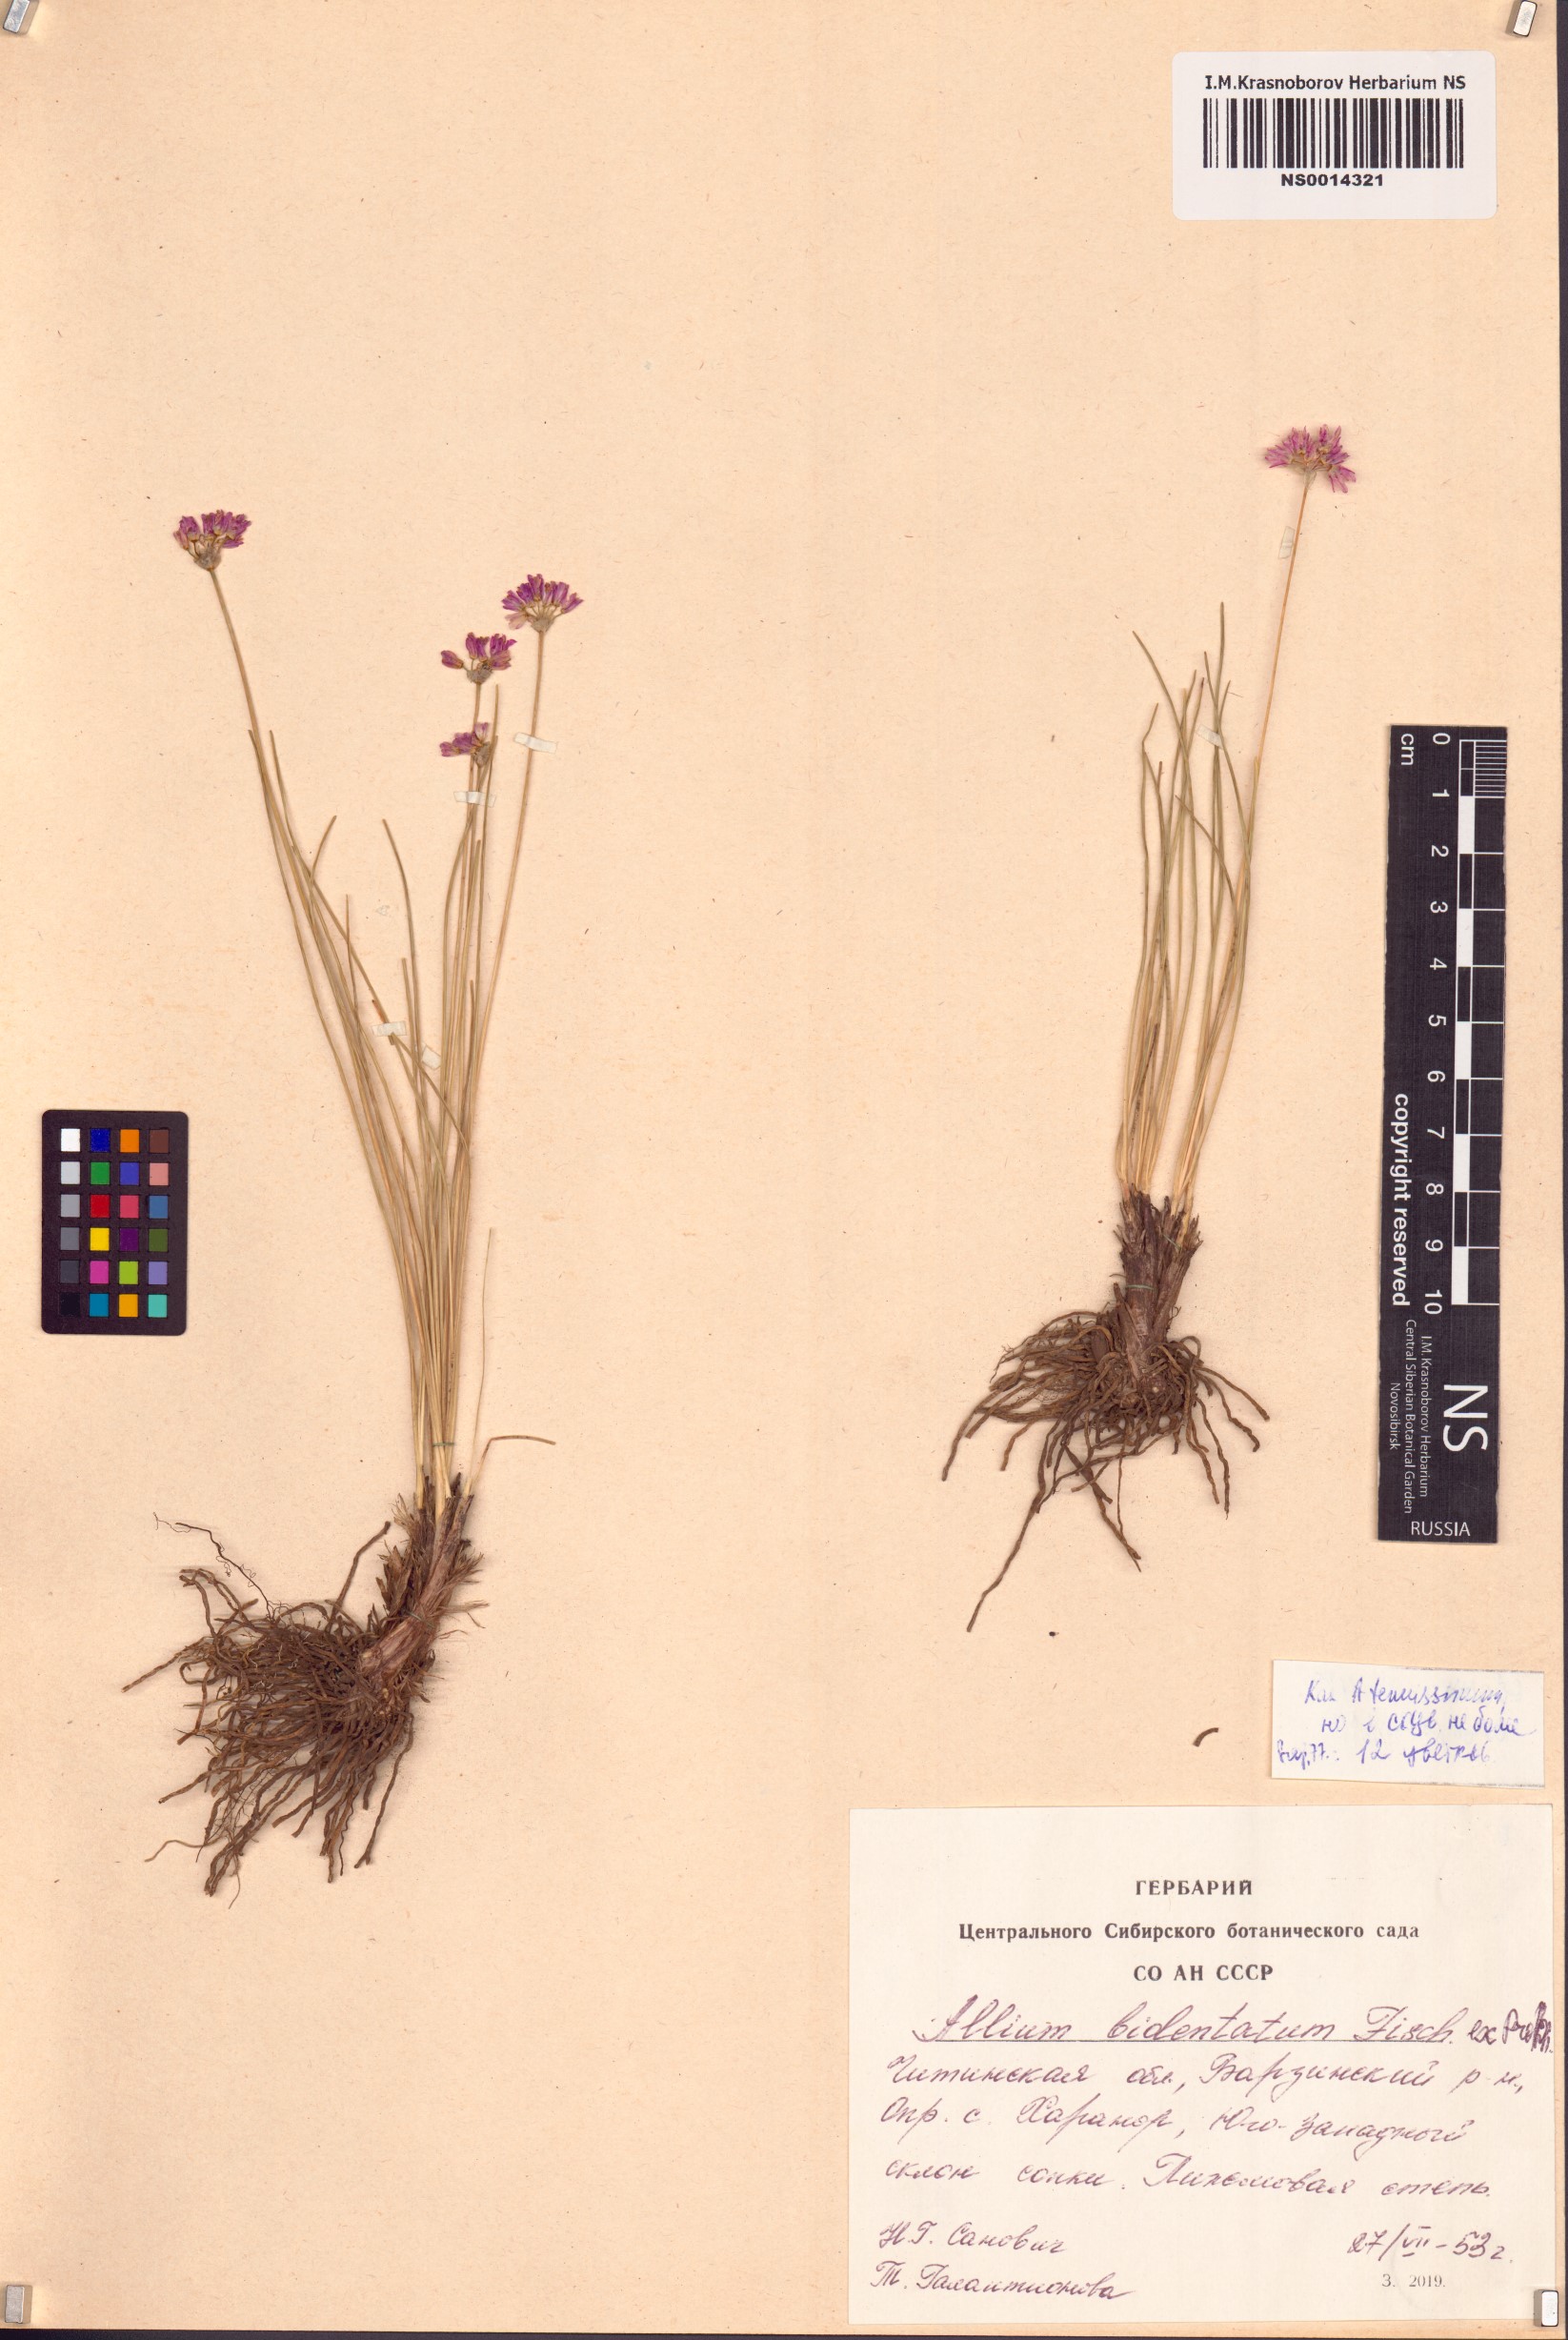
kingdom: Plantae
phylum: Tracheophyta
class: Liliopsida
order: Asparagales
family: Amaryllidaceae
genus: Allium
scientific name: Allium tenuissimum
